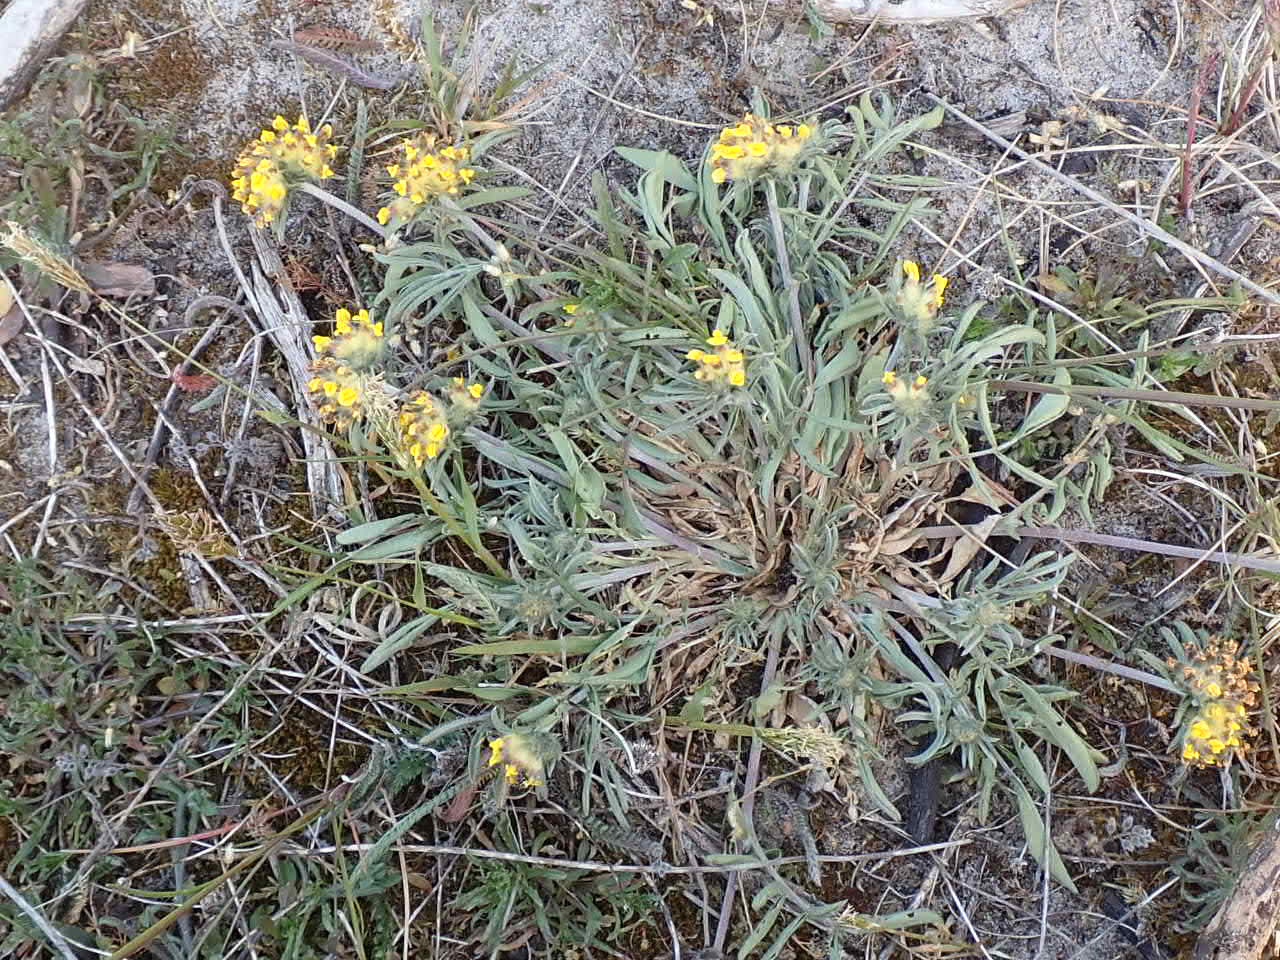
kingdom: Plantae
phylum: Tracheophyta
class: Magnoliopsida
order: Fabales
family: Fabaceae
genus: Anthyllis
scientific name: Anthyllis vulneraria
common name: Rundbælg
